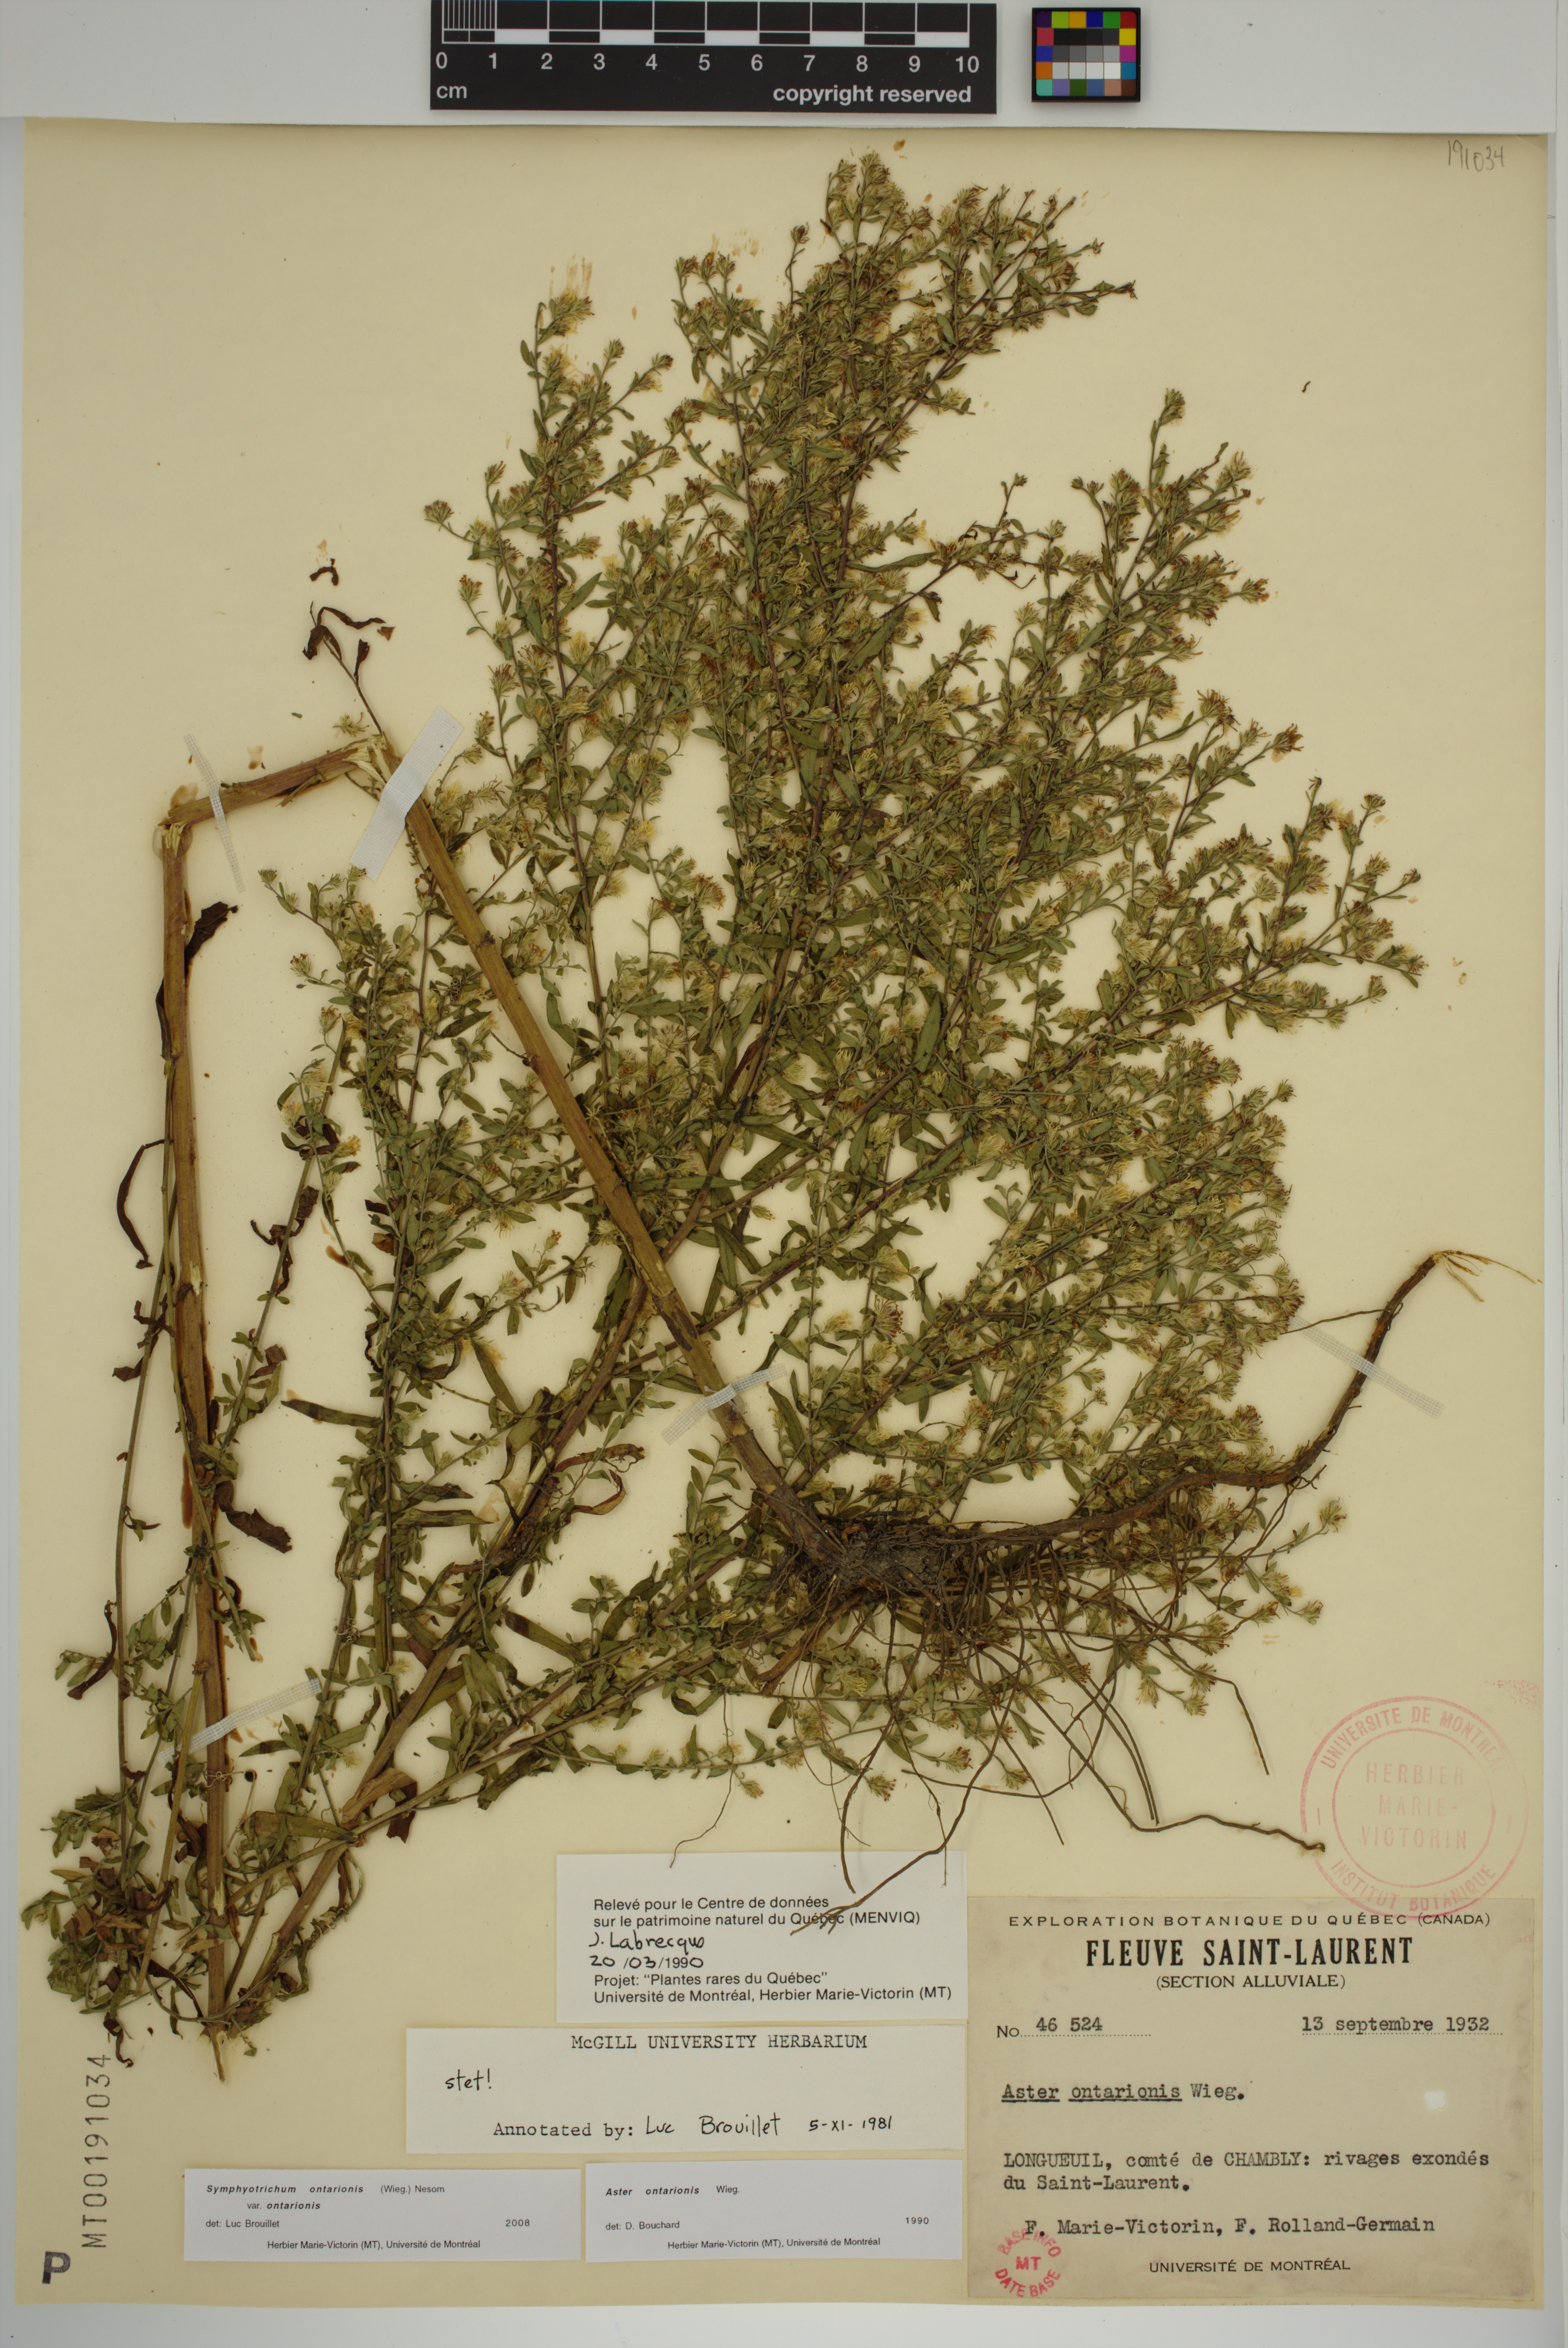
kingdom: Plantae
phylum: Tracheophyta
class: Magnoliopsida
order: Asterales
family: Asteraceae
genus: Symphyotrichum
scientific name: Symphyotrichum ontarionis
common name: Bottomland aster
